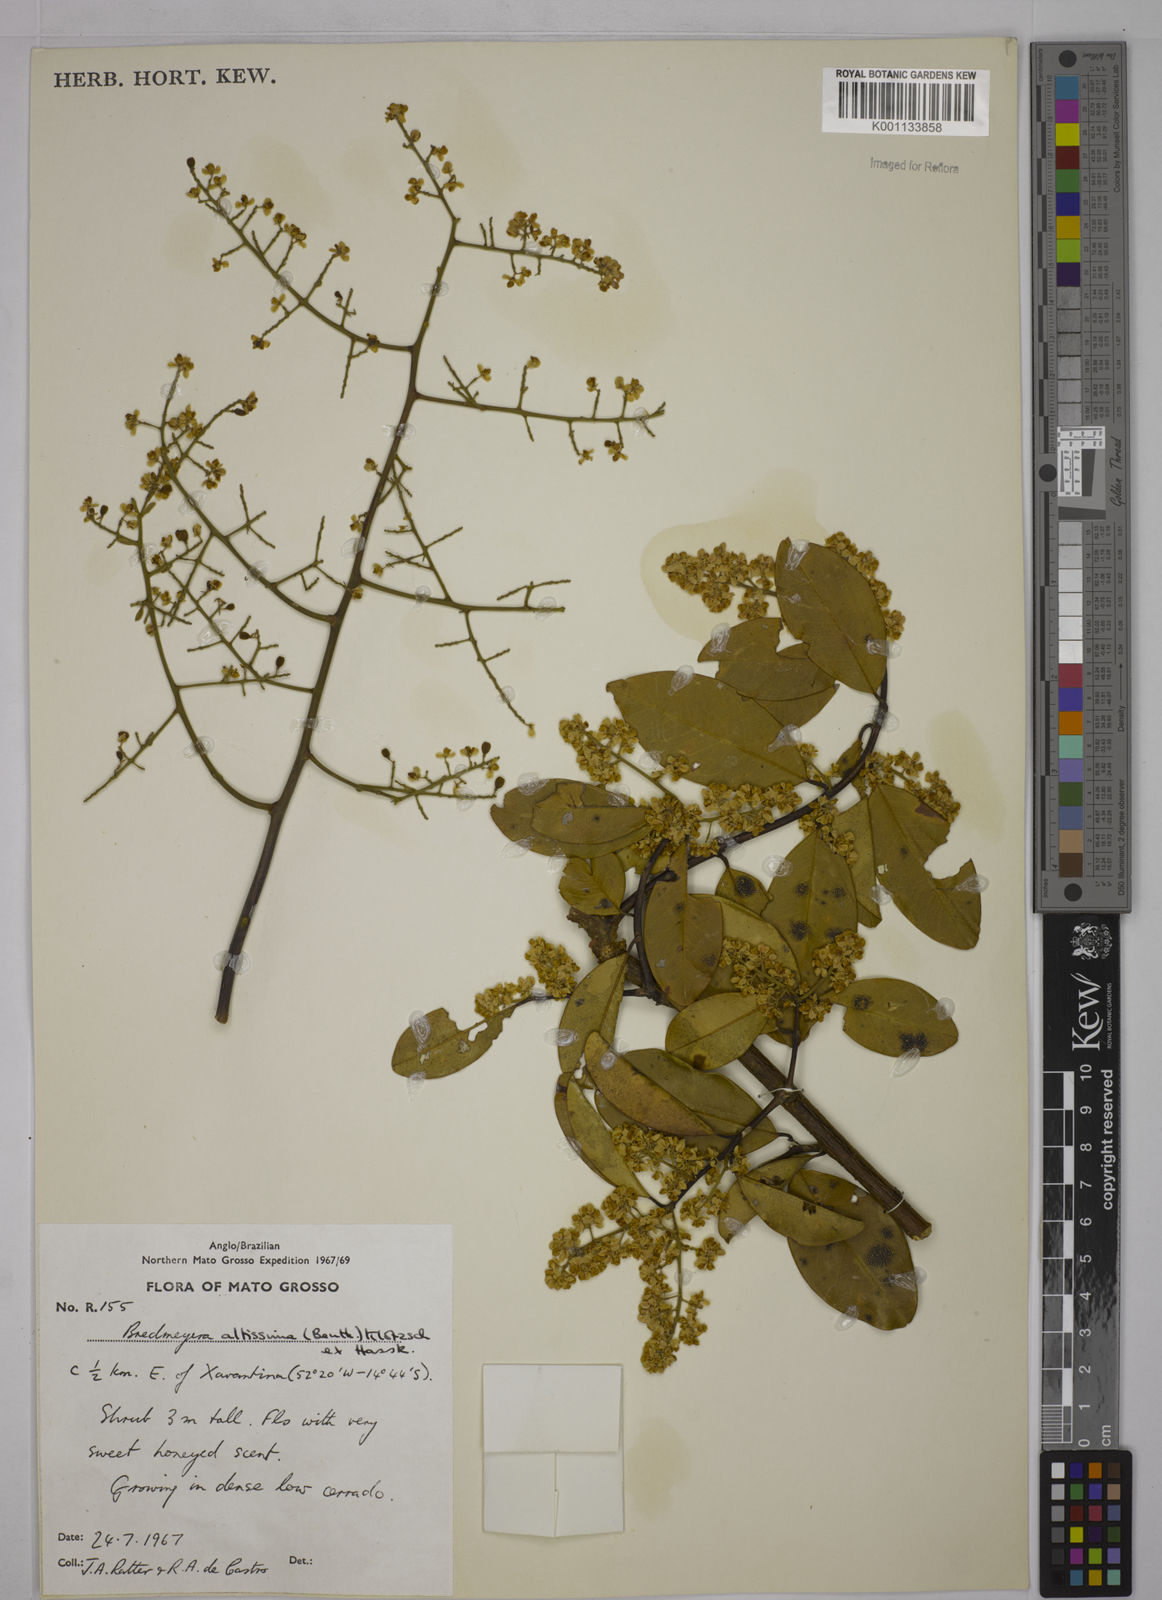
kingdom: Plantae
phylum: Tracheophyta
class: Magnoliopsida
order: Fabales
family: Polygalaceae
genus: Bredemeyera
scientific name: Bredemeyera divaricata
